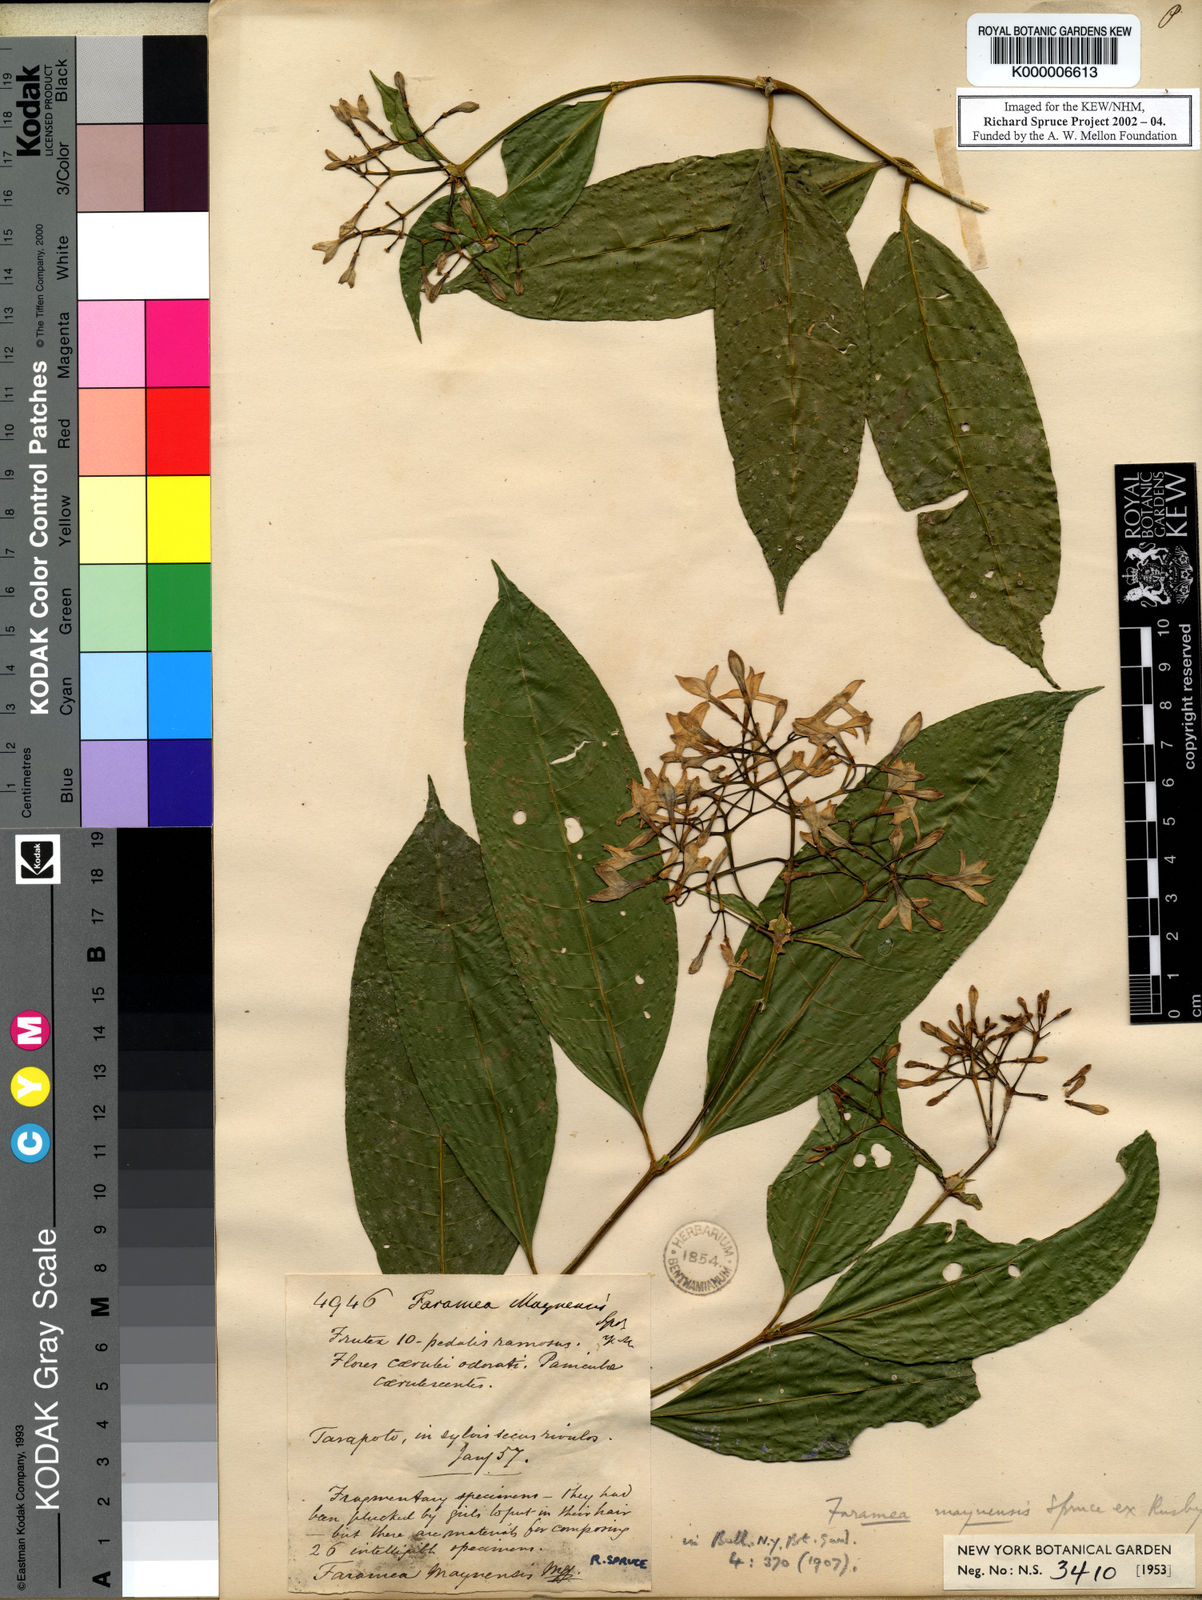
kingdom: Plantae
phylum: Tracheophyta
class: Magnoliopsida
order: Gentianales
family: Rubiaceae
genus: Faramea
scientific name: Faramea multiflora
